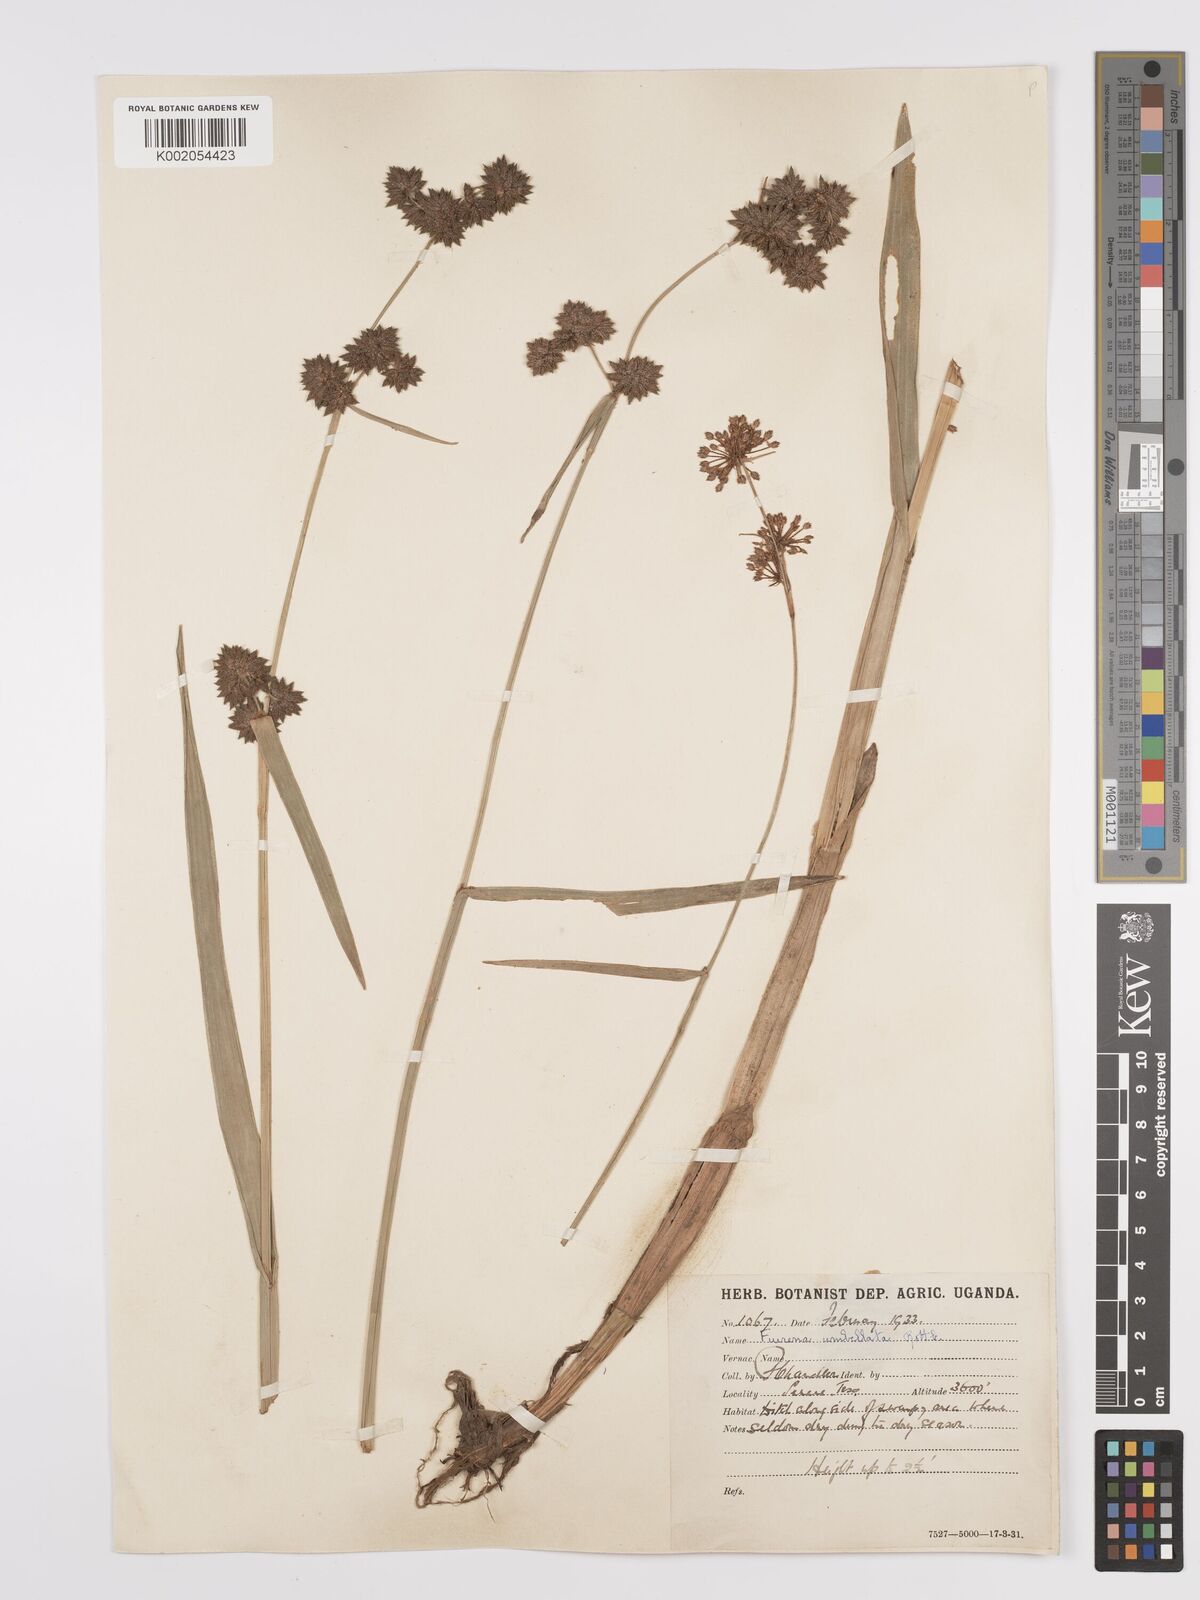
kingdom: Plantae
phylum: Tracheophyta
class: Liliopsida
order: Poales
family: Cyperaceae
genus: Fuirena
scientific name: Fuirena umbellata
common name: Yefen
